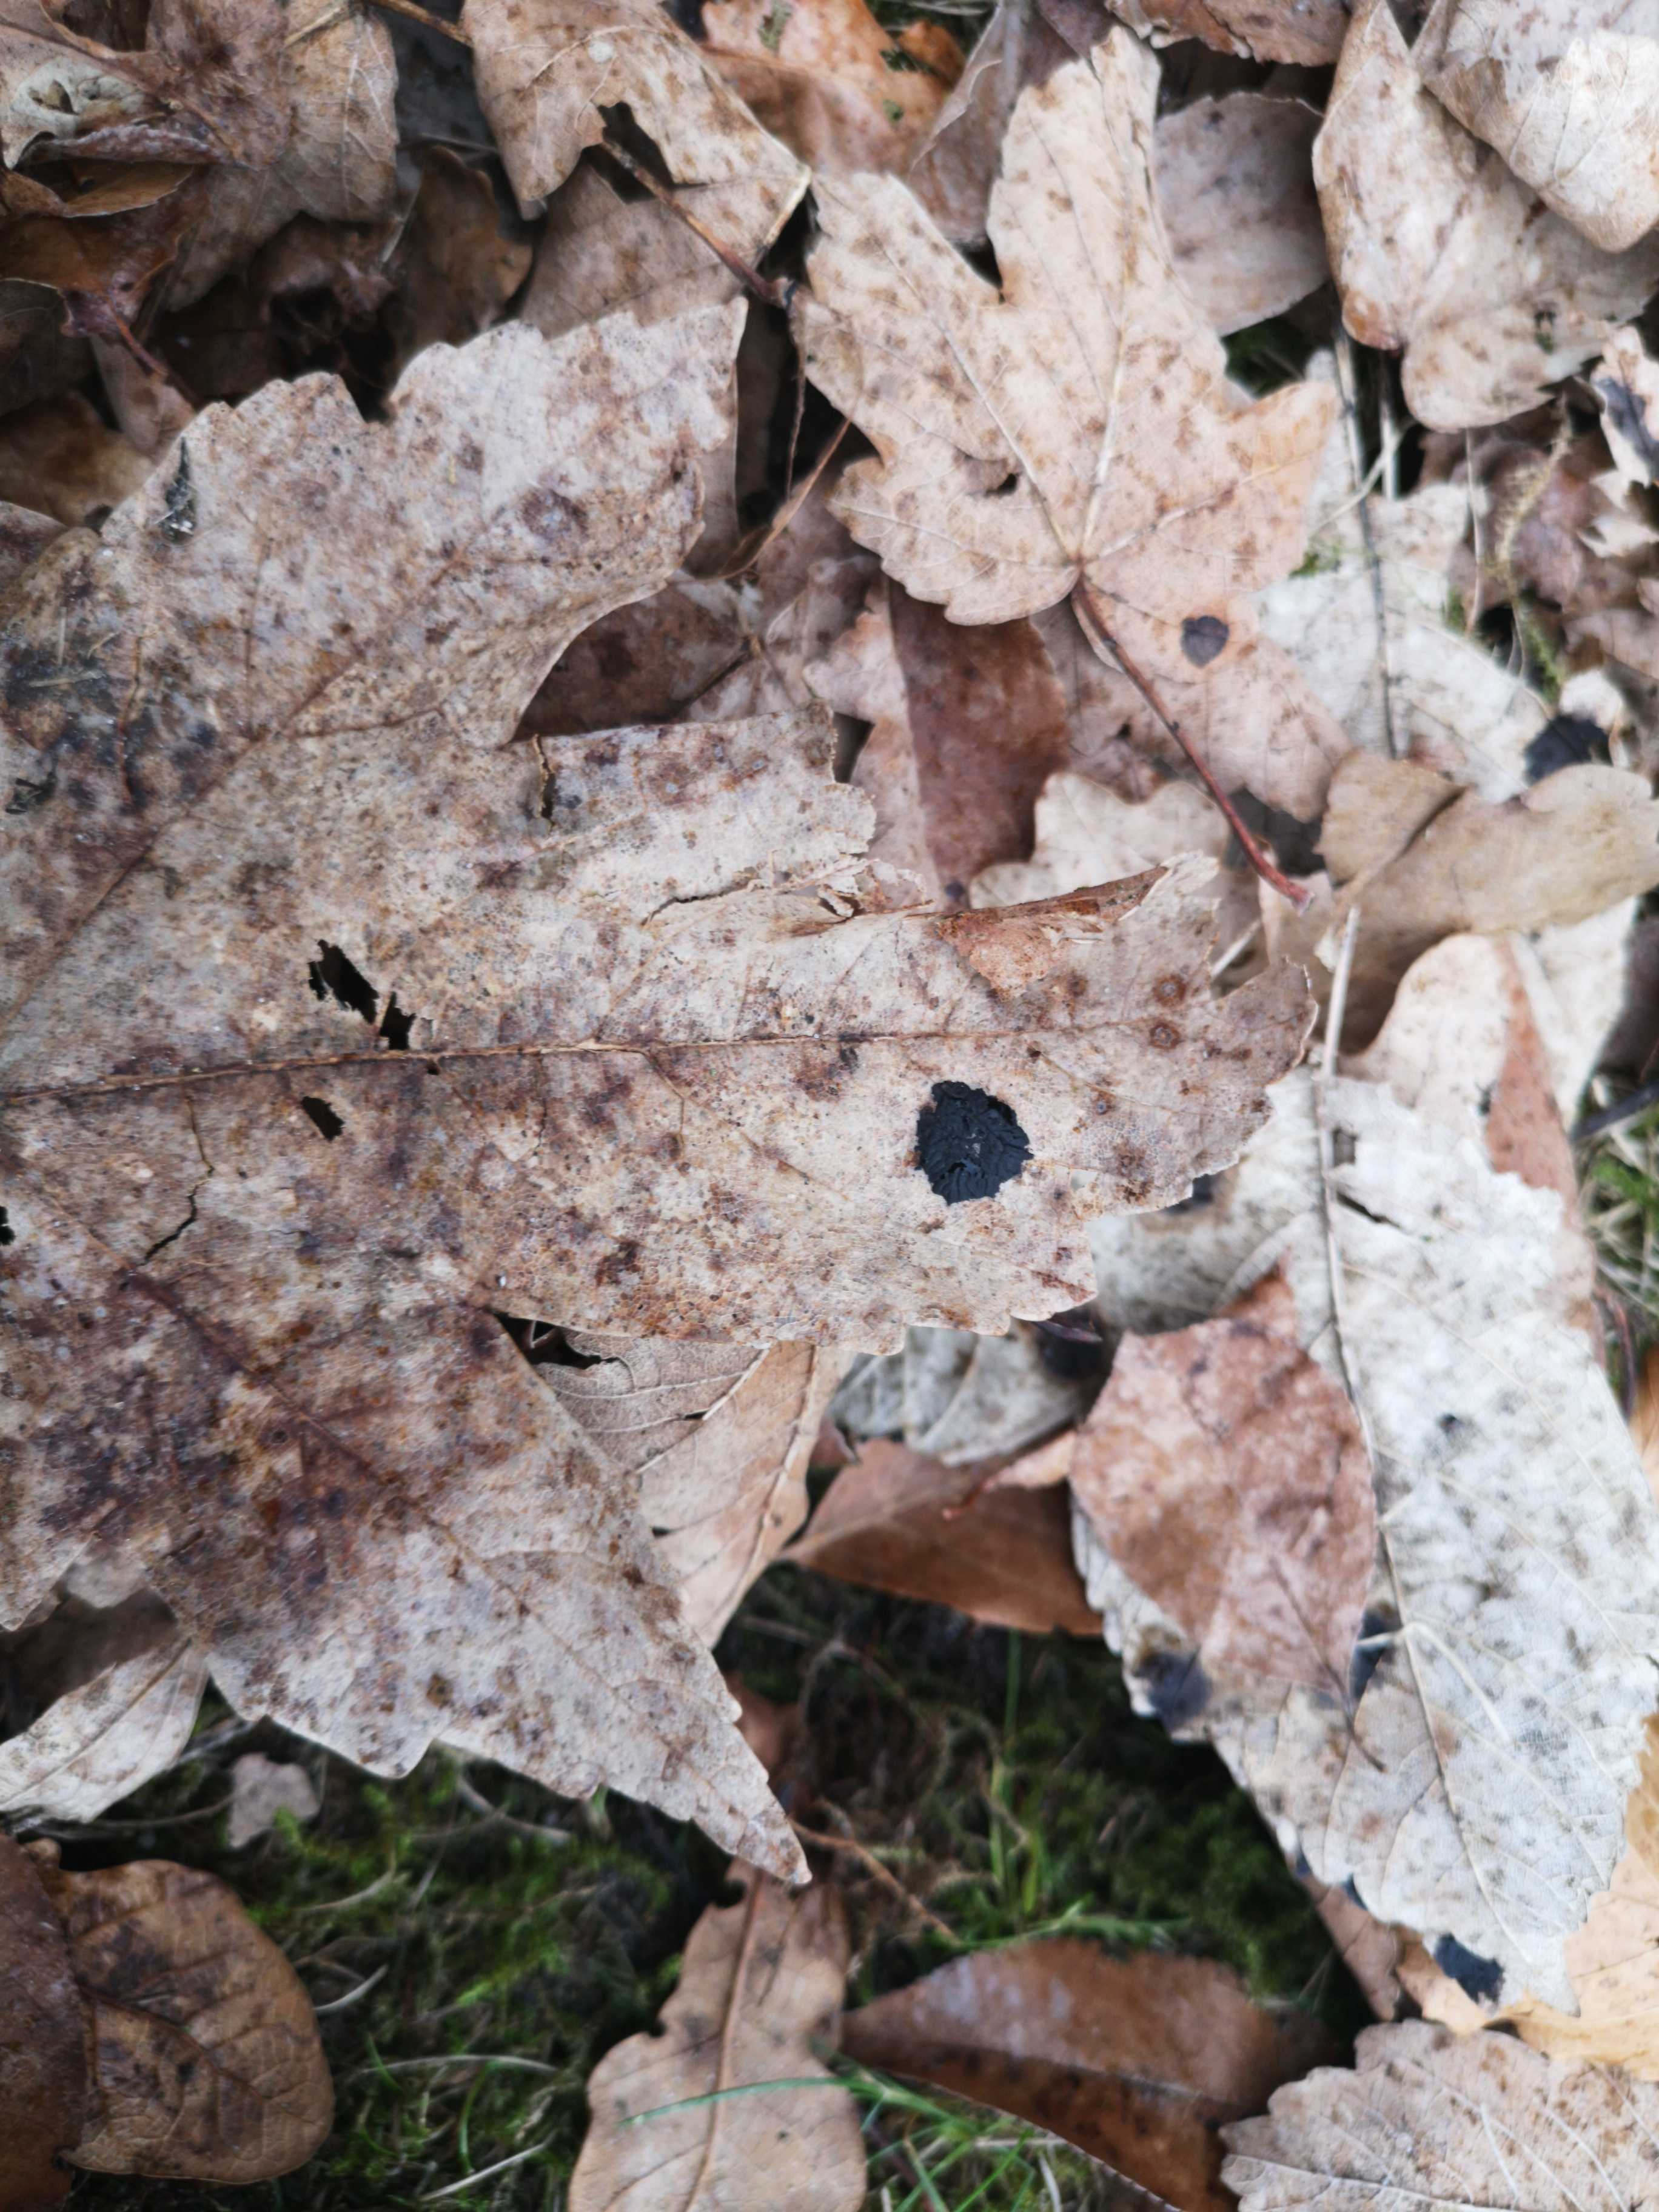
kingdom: Fungi
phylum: Ascomycota
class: Leotiomycetes
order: Rhytismatales
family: Rhytismataceae
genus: Rhytisma
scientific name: Rhytisma acerinum
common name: ahorn-rynkeplet
